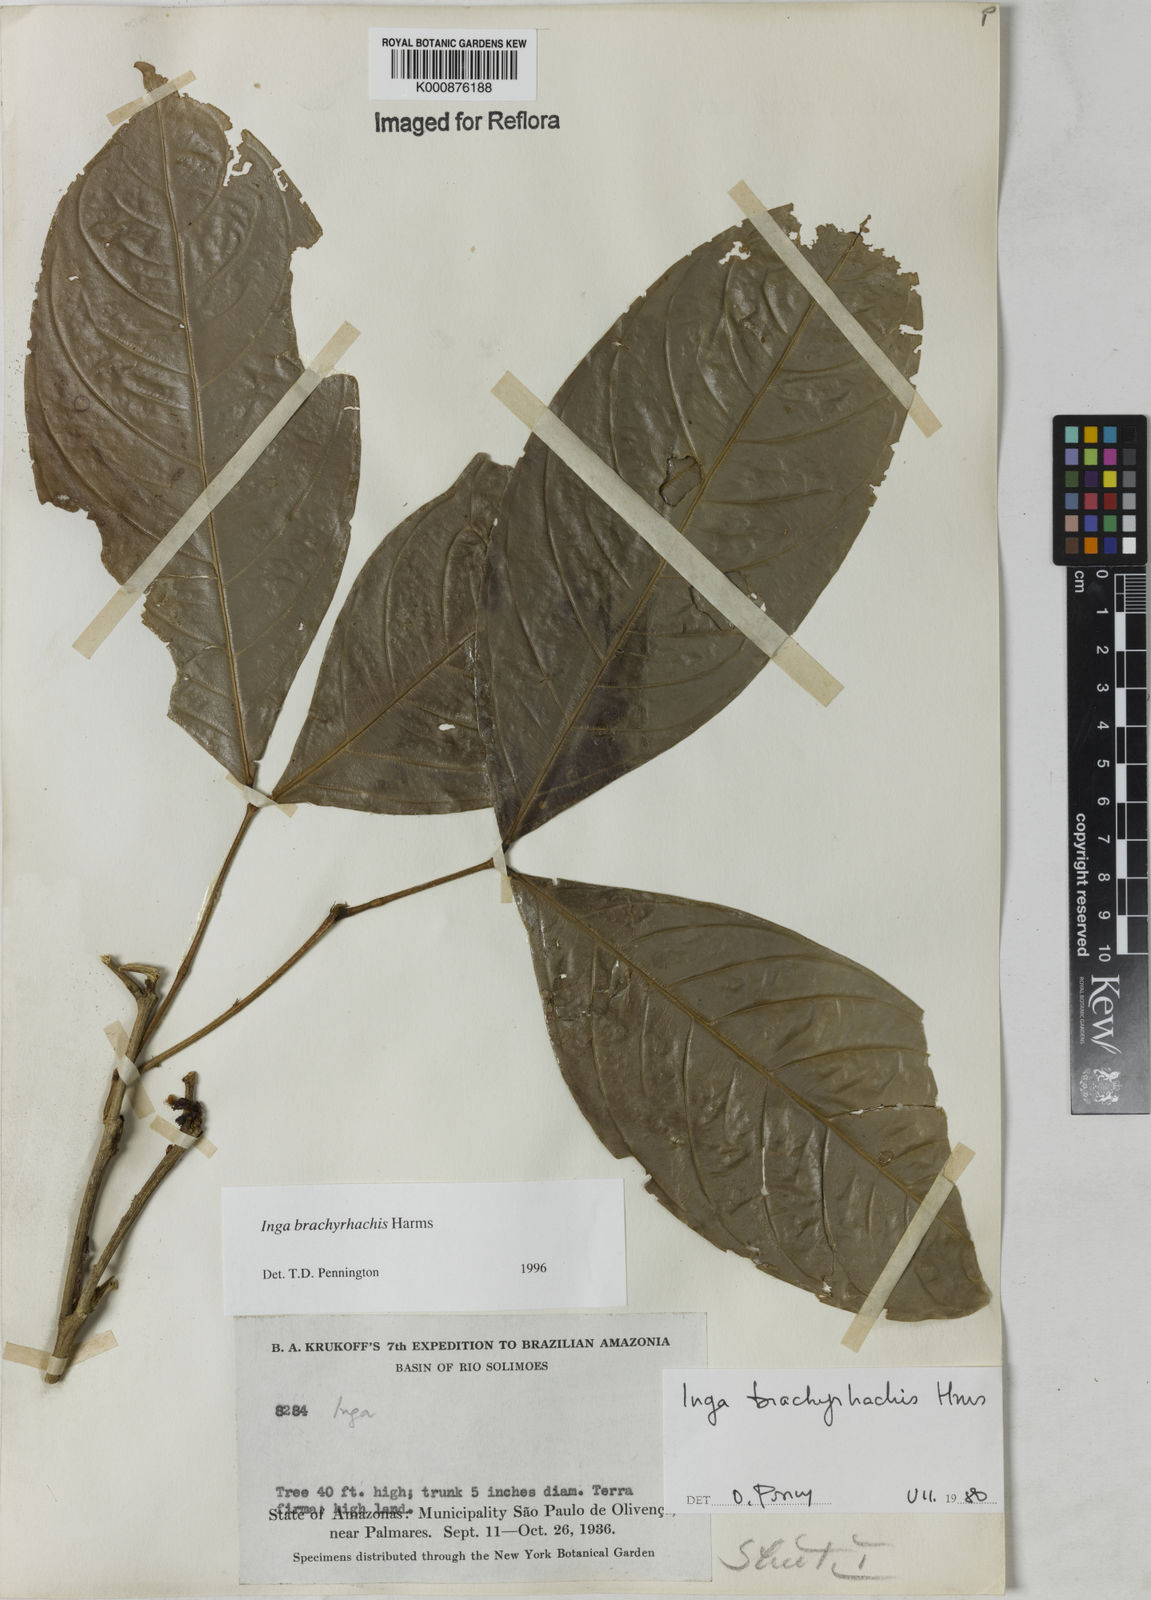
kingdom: Plantae
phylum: Tracheophyta
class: Magnoliopsida
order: Fabales
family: Fabaceae
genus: Inga
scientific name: Inga brachyrhachis
